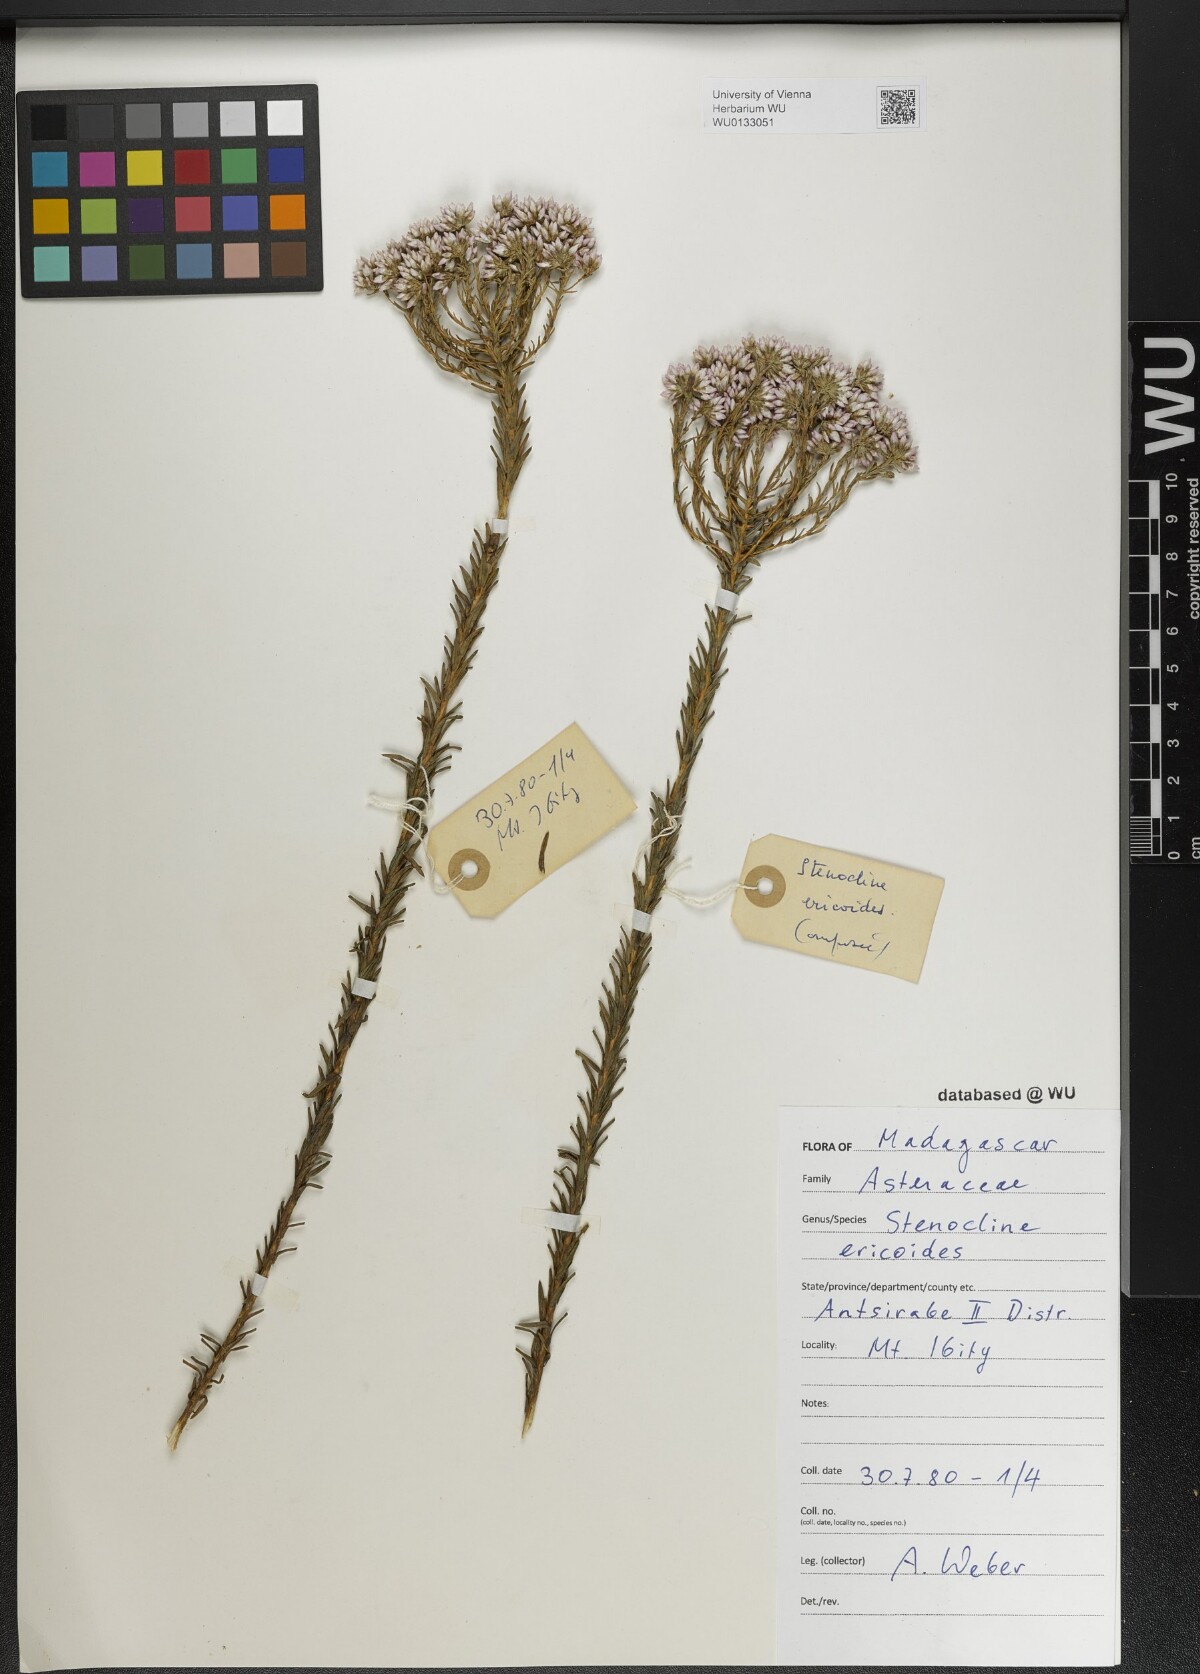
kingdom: Plantae
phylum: Tracheophyta
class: Magnoliopsida
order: Asterales
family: Asteraceae
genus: Stenocline
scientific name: Stenocline ericoides
